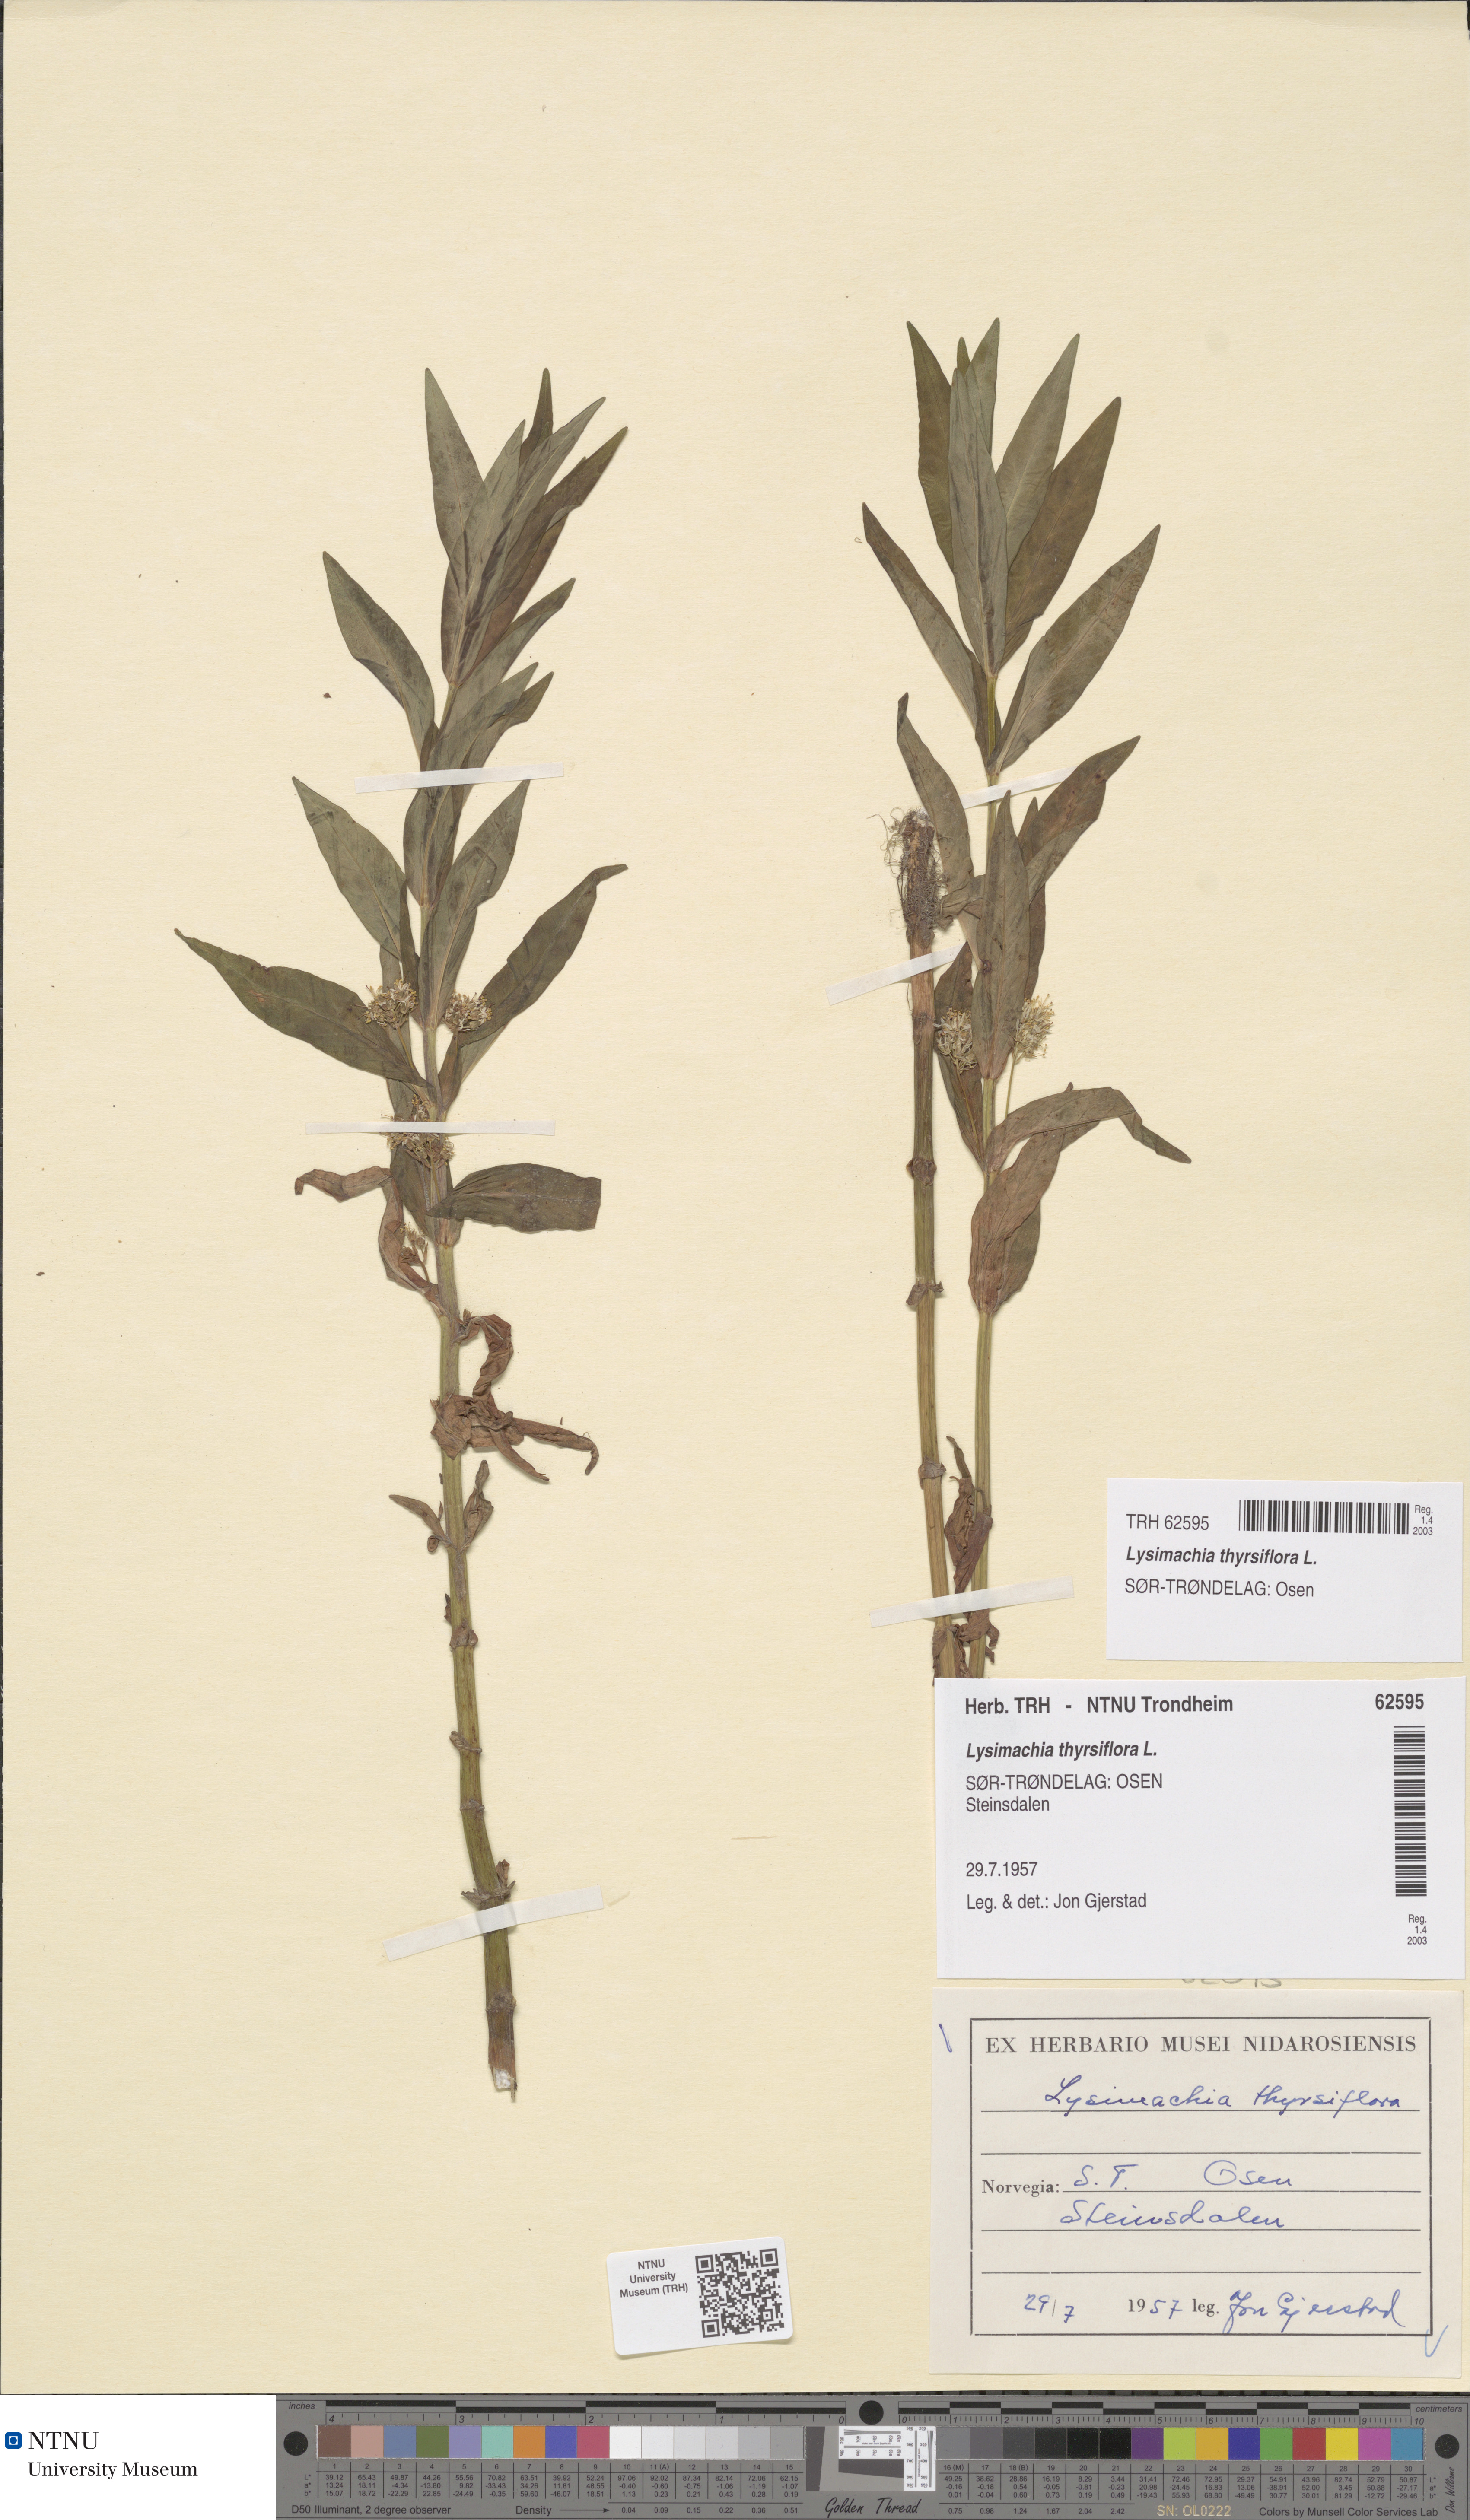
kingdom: Plantae
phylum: Tracheophyta
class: Magnoliopsida
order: Ericales
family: Primulaceae
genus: Lysimachia
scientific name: Lysimachia thyrsiflora
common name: Tufted loosestrife
